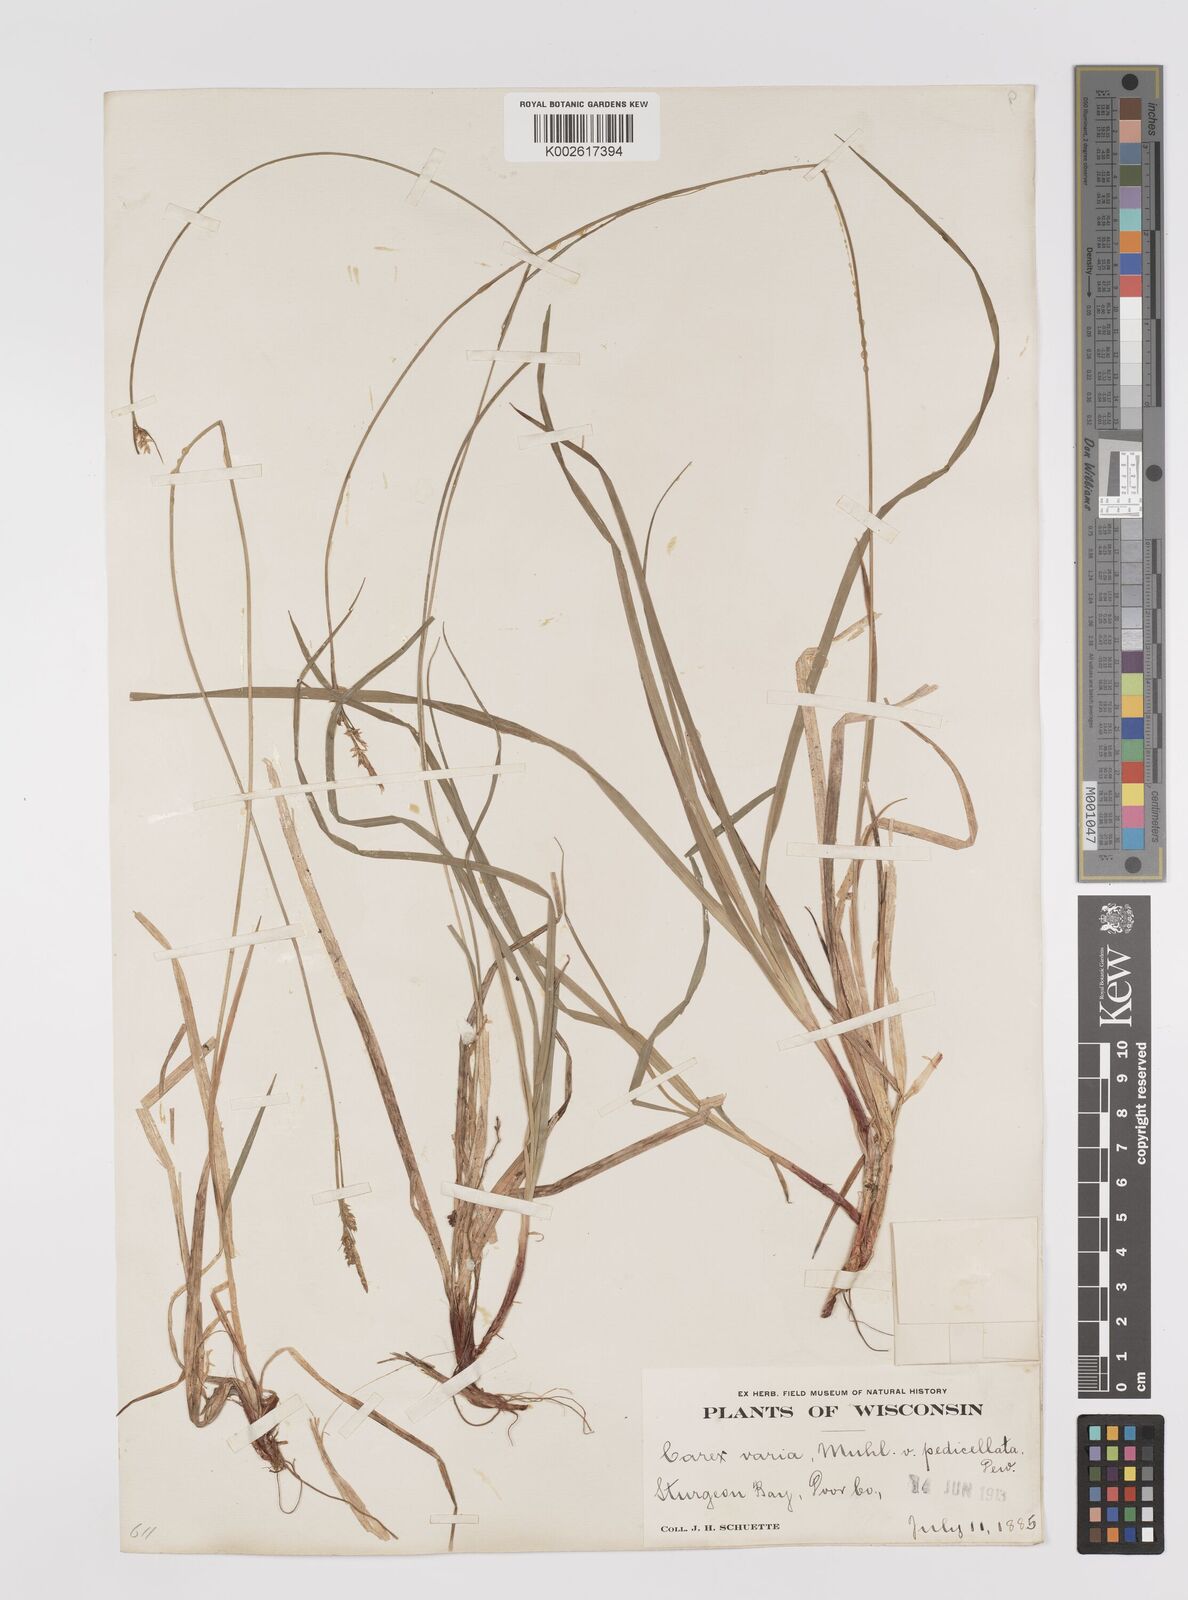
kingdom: Plantae
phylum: Tracheophyta
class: Liliopsida
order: Poales
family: Cyperaceae
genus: Carex
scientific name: Carex communis
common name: Colonial oak sedge
